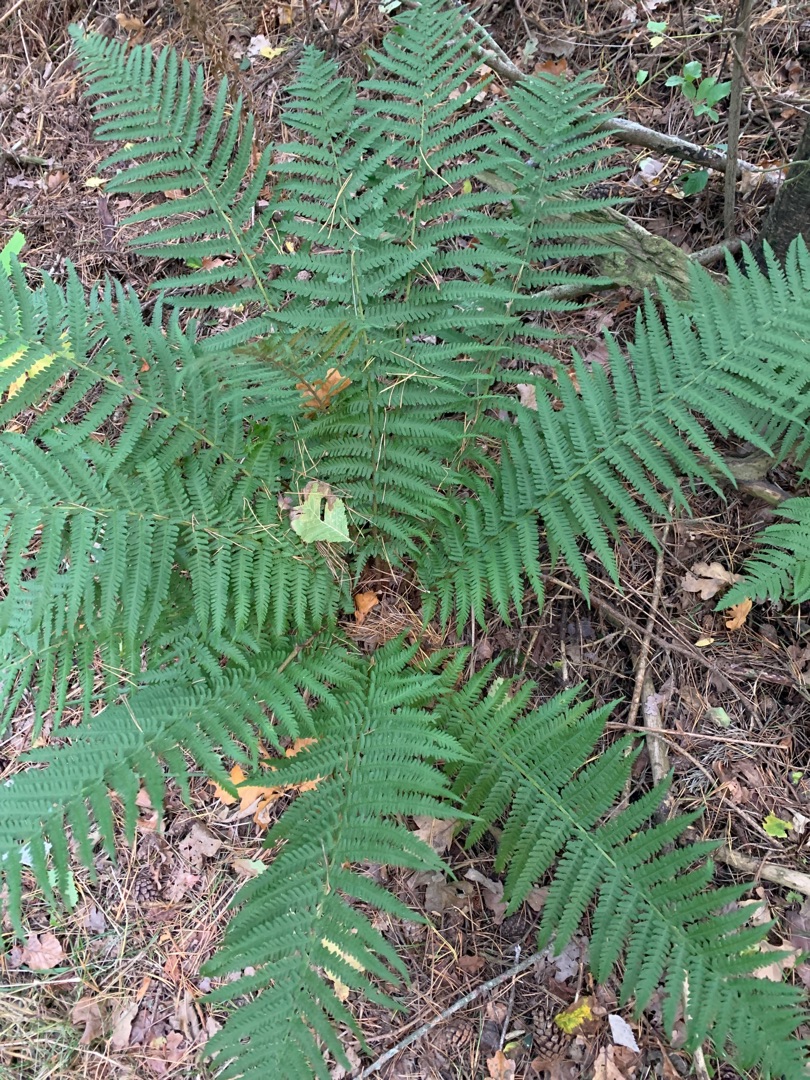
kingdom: Plantae
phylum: Tracheophyta
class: Polypodiopsida
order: Polypodiales
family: Dryopteridaceae
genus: Dryopteris
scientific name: Dryopteris filix-mas
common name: Almindelig mangeløv
